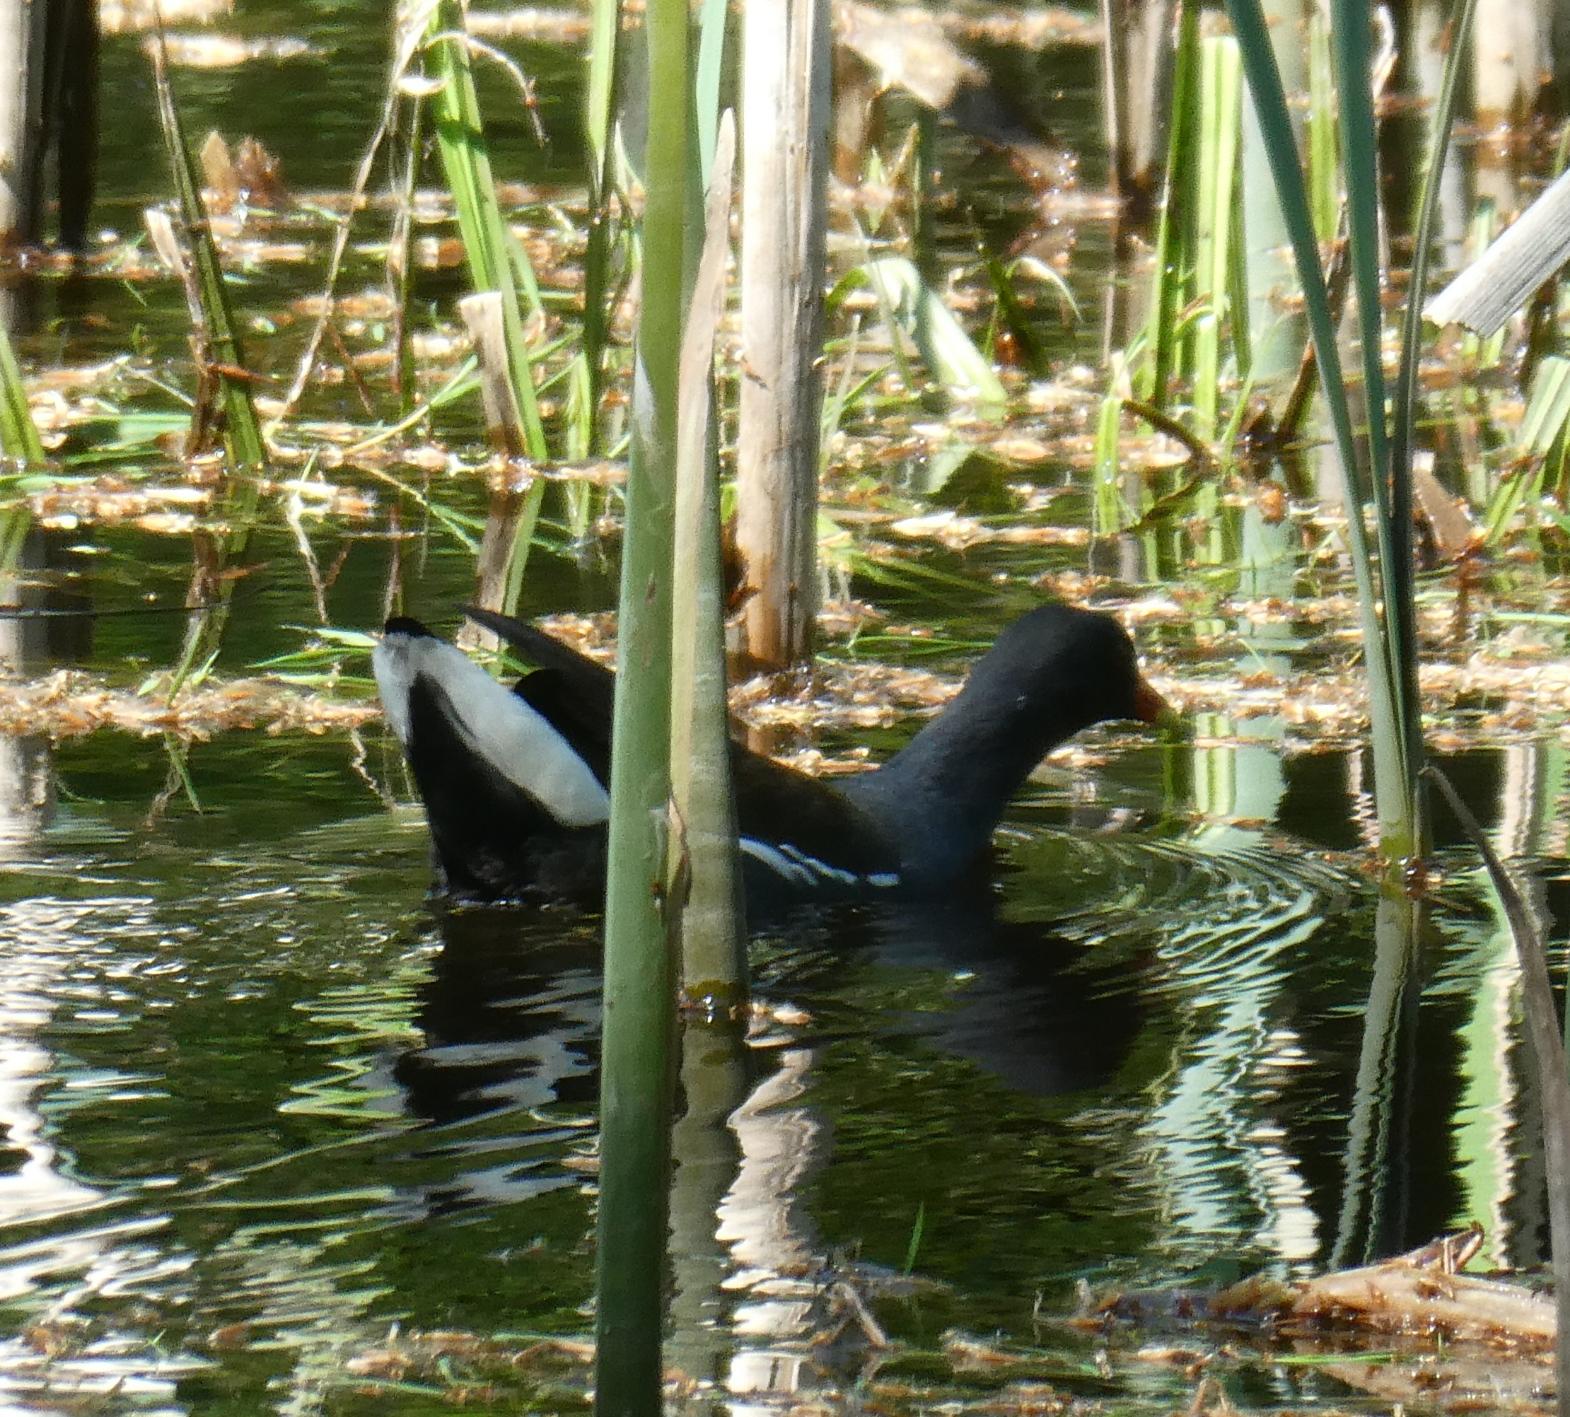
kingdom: Animalia
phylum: Chordata
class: Aves
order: Gruiformes
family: Rallidae
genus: Gallinula
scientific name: Gallinula chloropus
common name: Grønbenet rørhøne
